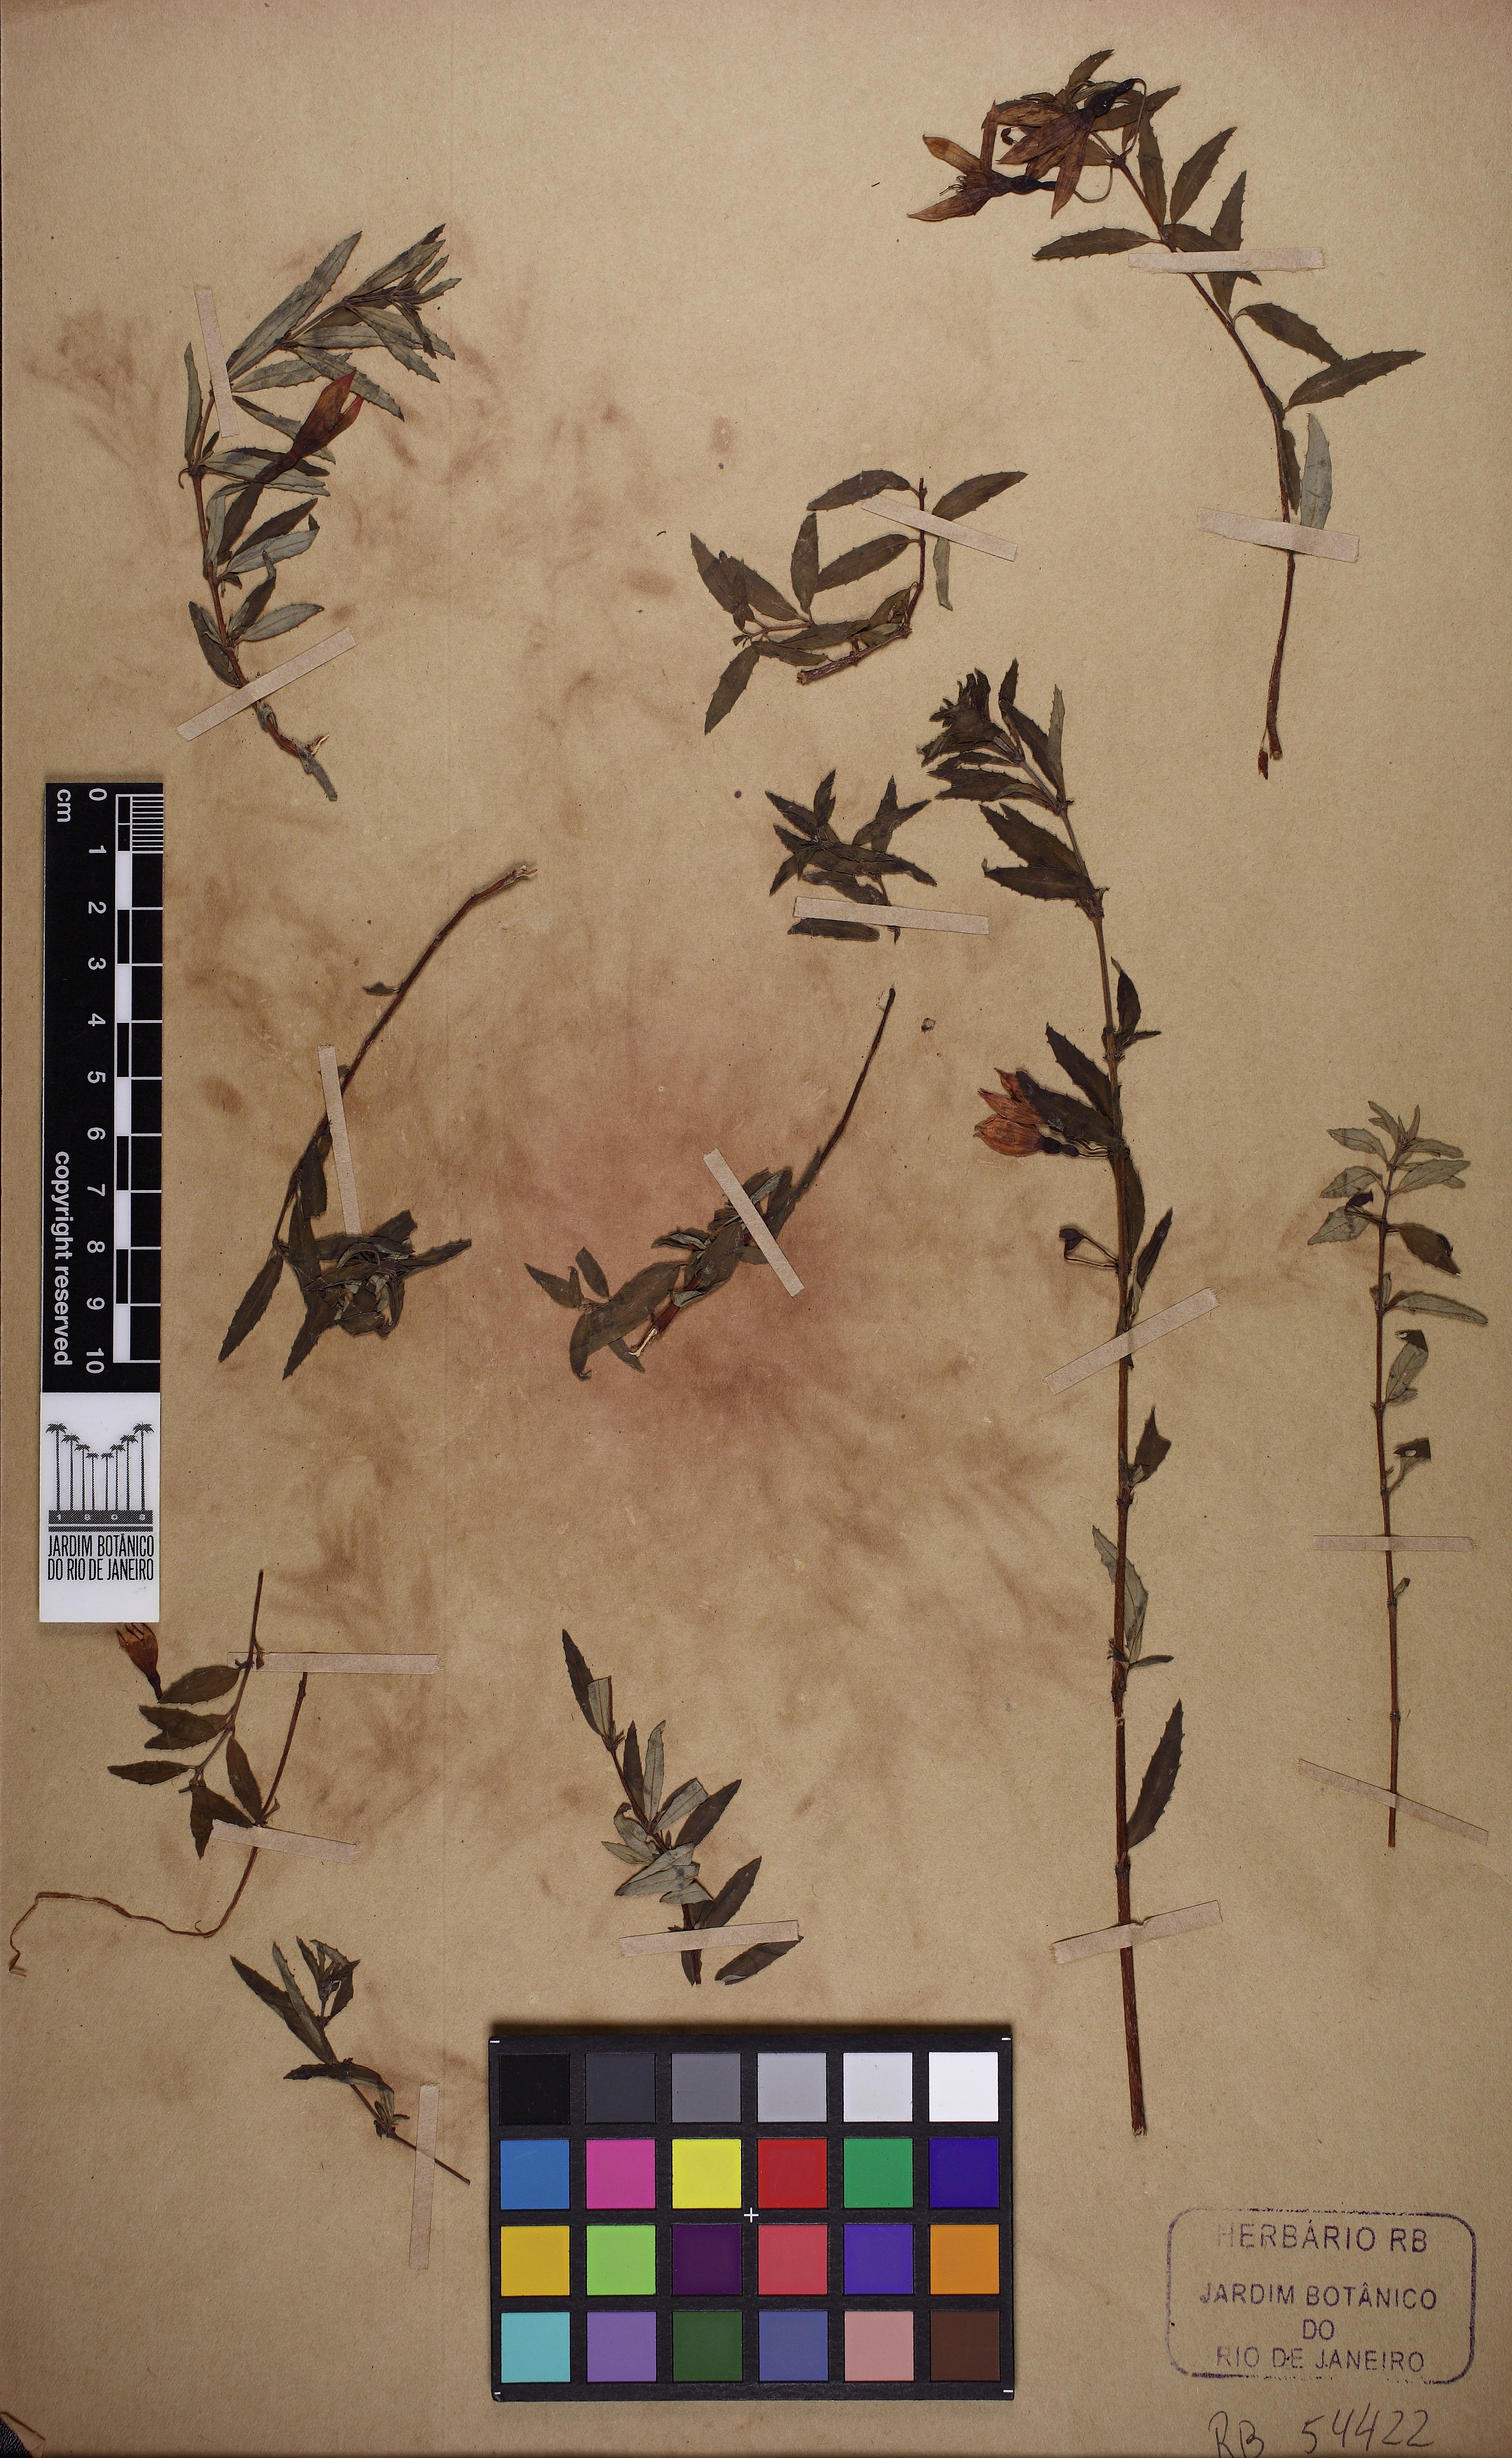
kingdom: Plantae
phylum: Tracheophyta
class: Magnoliopsida
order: Myrtales
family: Onagraceae
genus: Fuchsia
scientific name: Fuchsia campos-portoi
